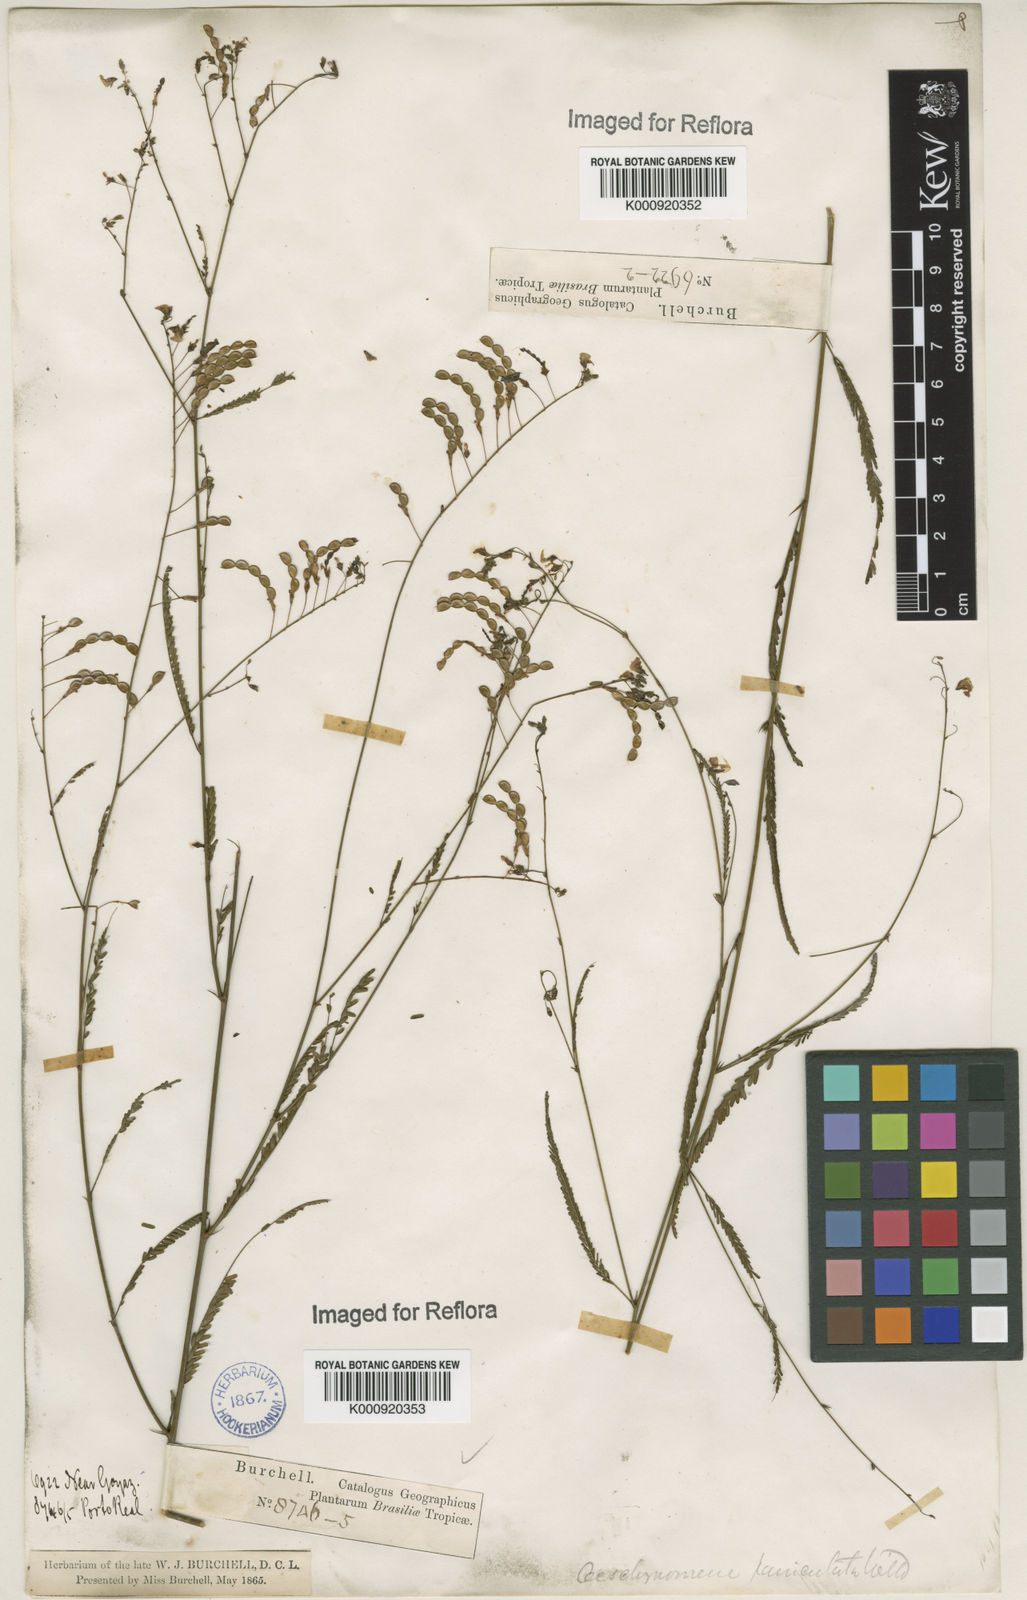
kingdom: Plantae
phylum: Tracheophyta
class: Magnoliopsida
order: Fabales
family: Fabaceae
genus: Ctenodon
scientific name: Ctenodon paniculatus
